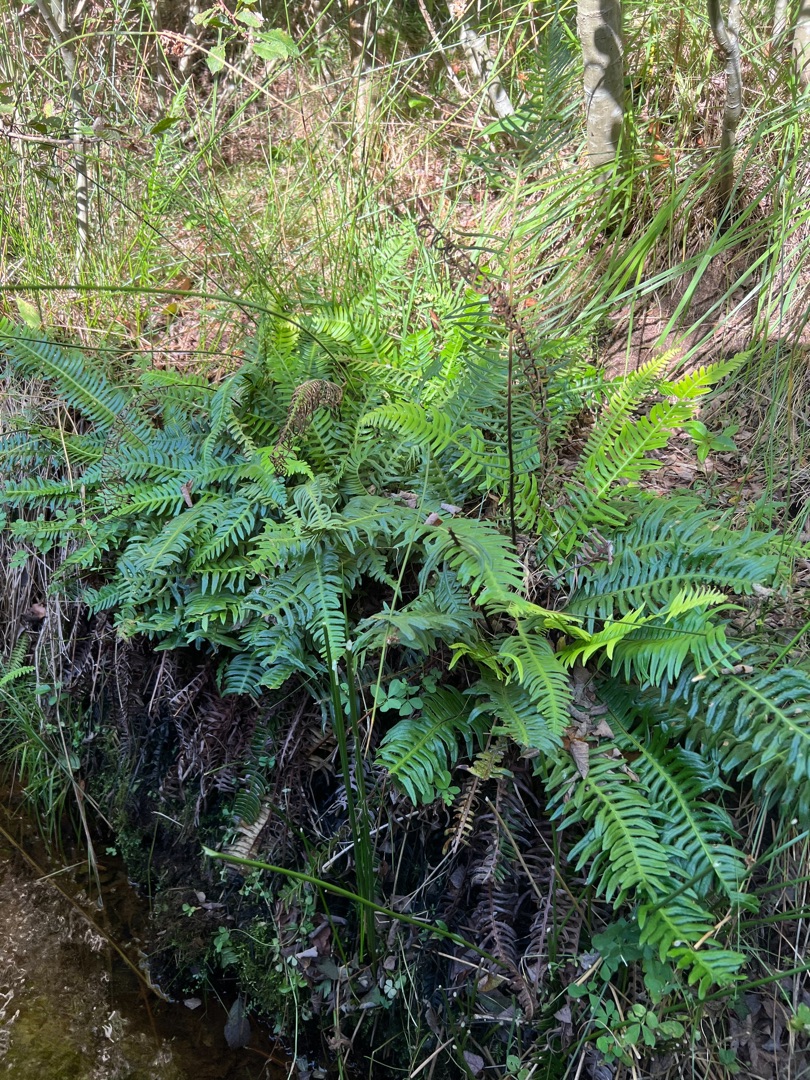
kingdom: Plantae
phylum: Tracheophyta
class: Polypodiopsida
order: Polypodiales
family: Blechnaceae
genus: Struthiopteris
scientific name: Struthiopteris spicant
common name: Kambregne
